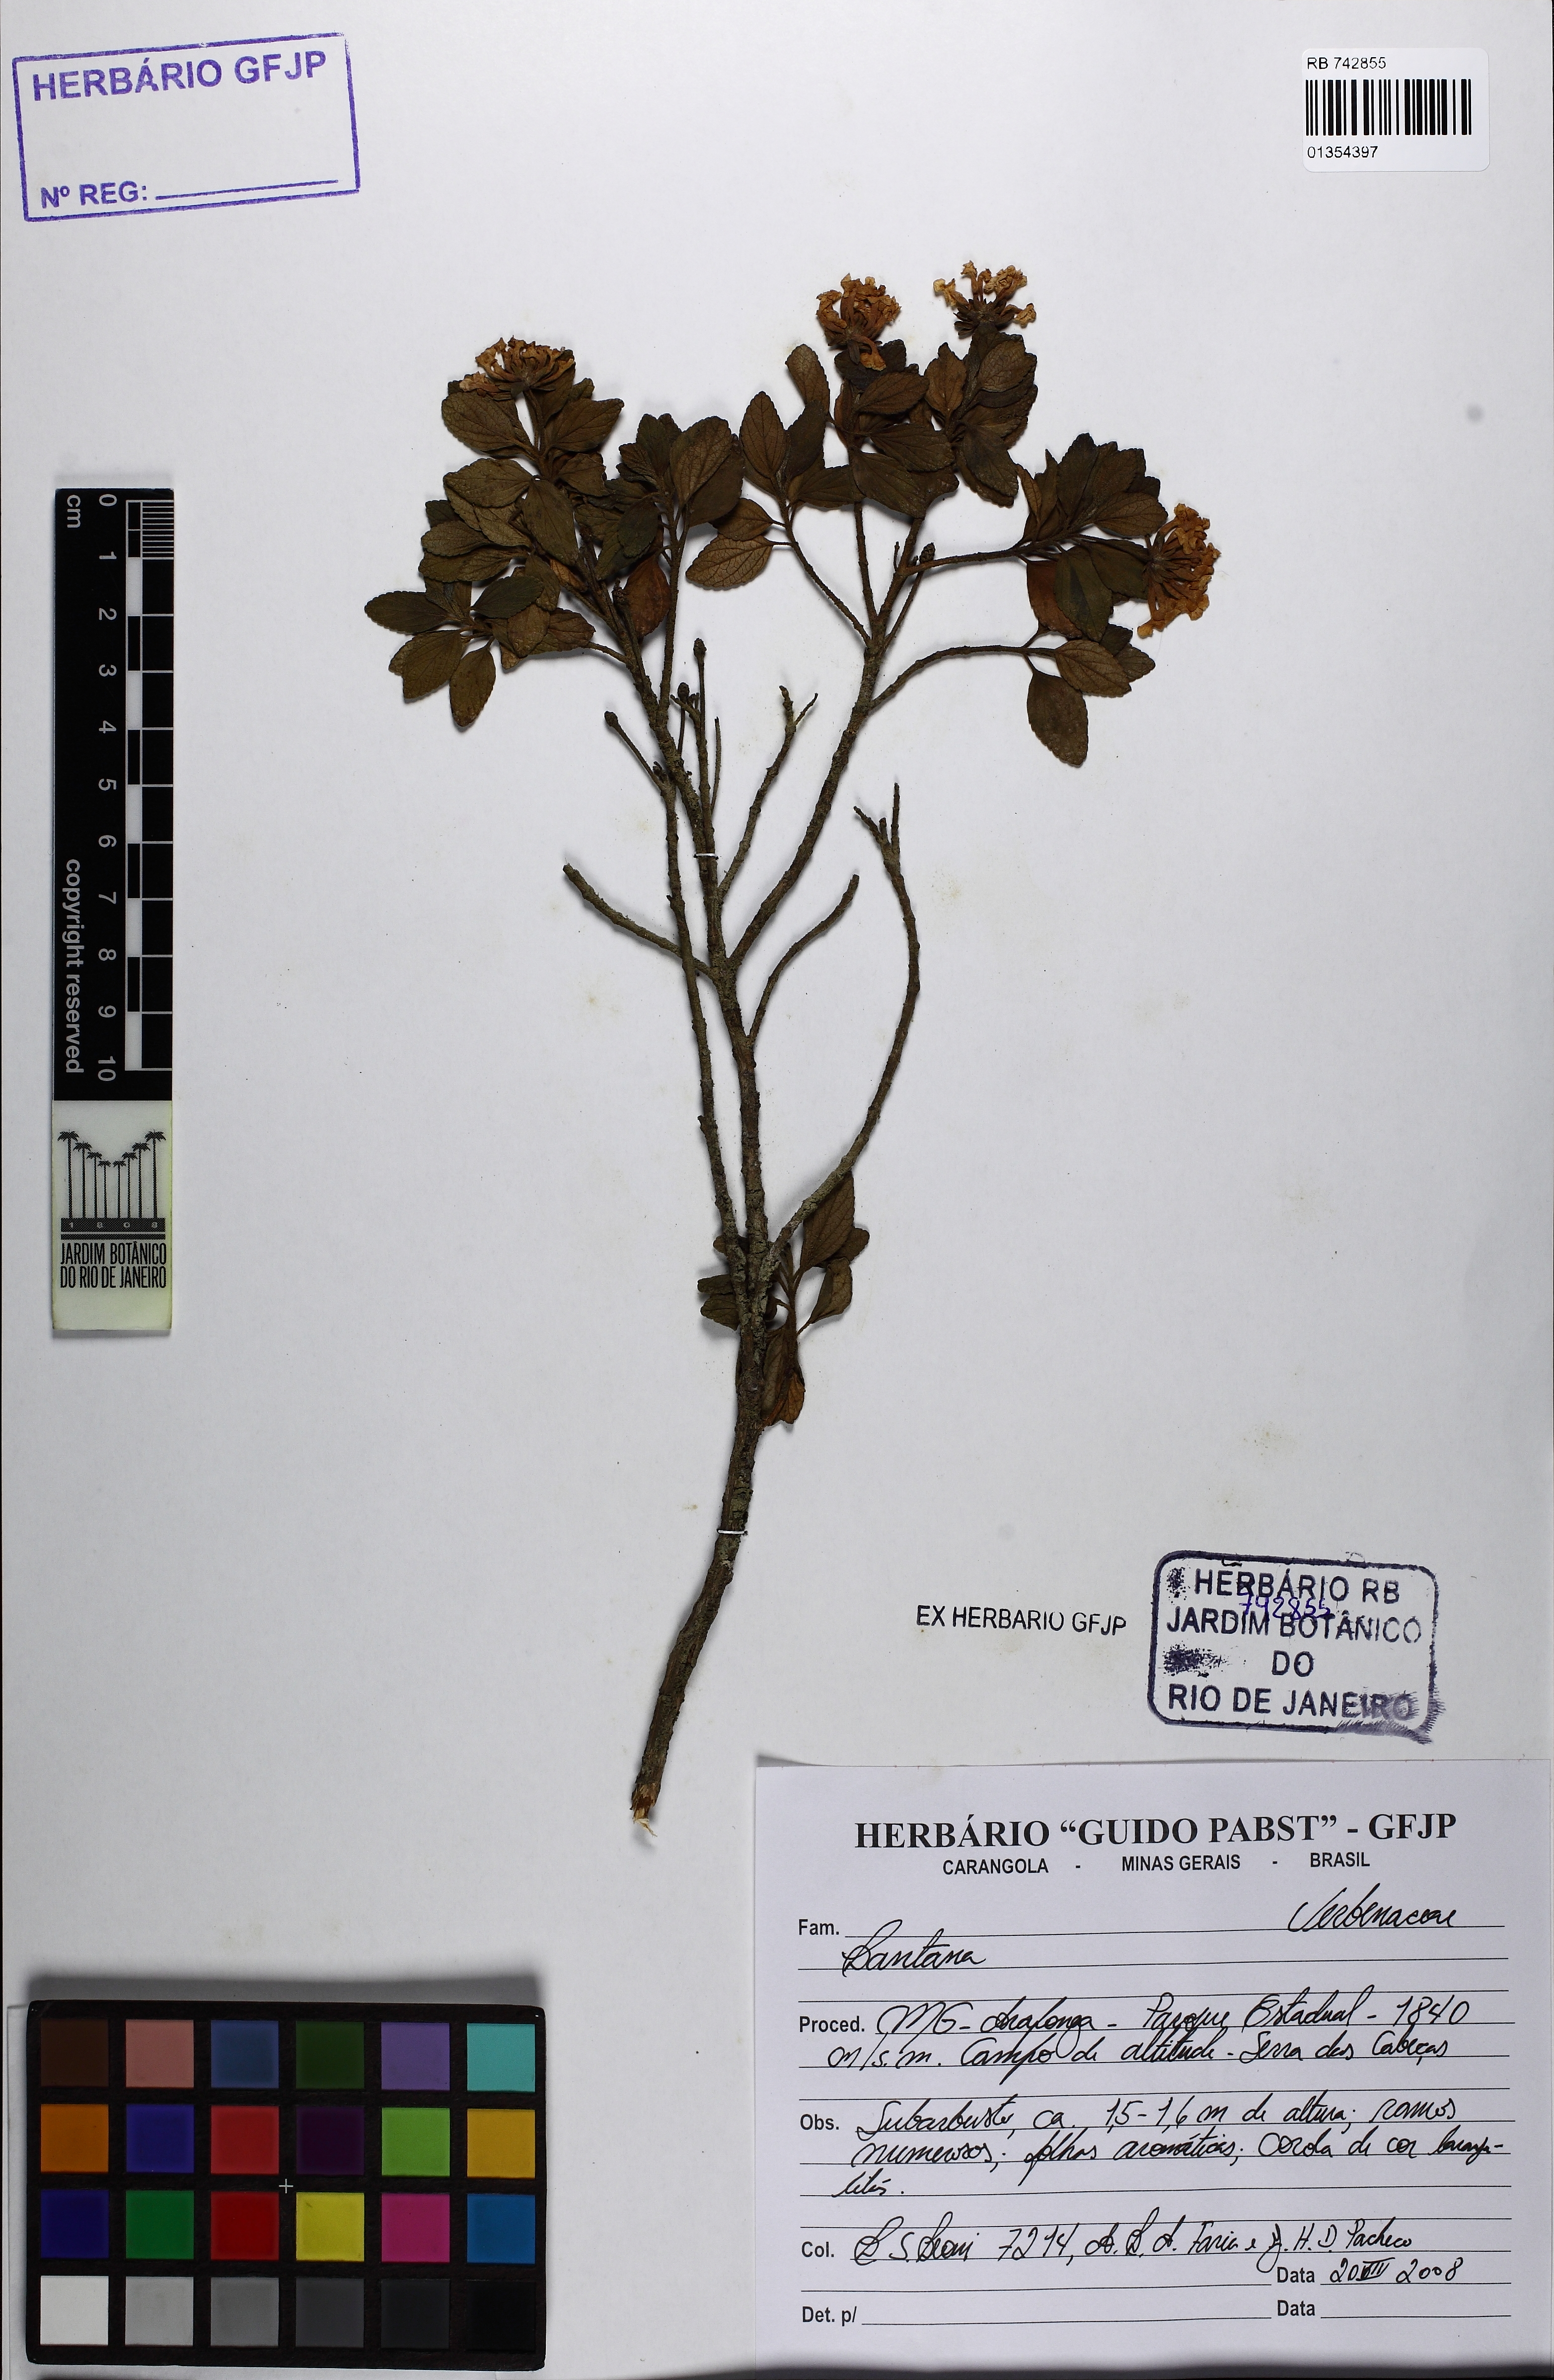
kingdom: Plantae
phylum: Tracheophyta
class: Magnoliopsida
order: Lamiales
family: Verbenaceae
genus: Lantana
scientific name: Lantana
